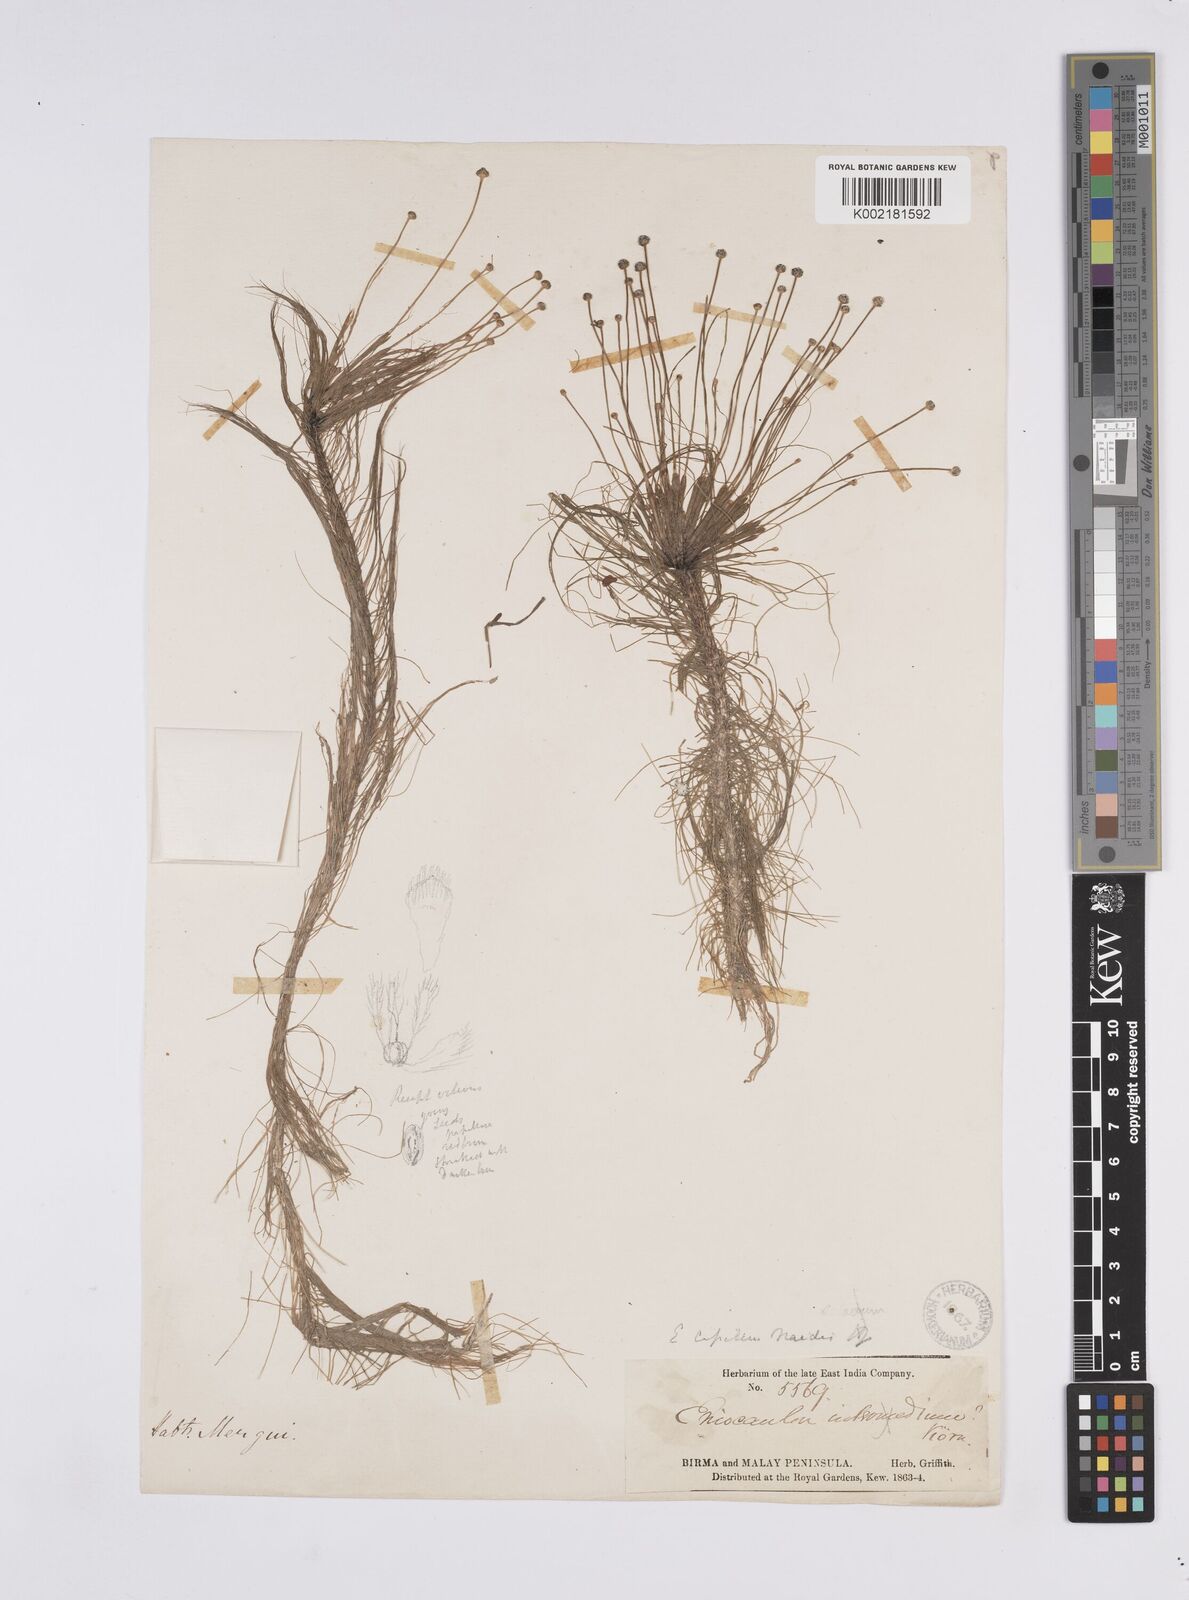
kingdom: Plantae
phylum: Tracheophyta
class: Liliopsida
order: Poales
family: Eriocaulaceae
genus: Eriocaulon
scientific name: Eriocaulon setaceum
